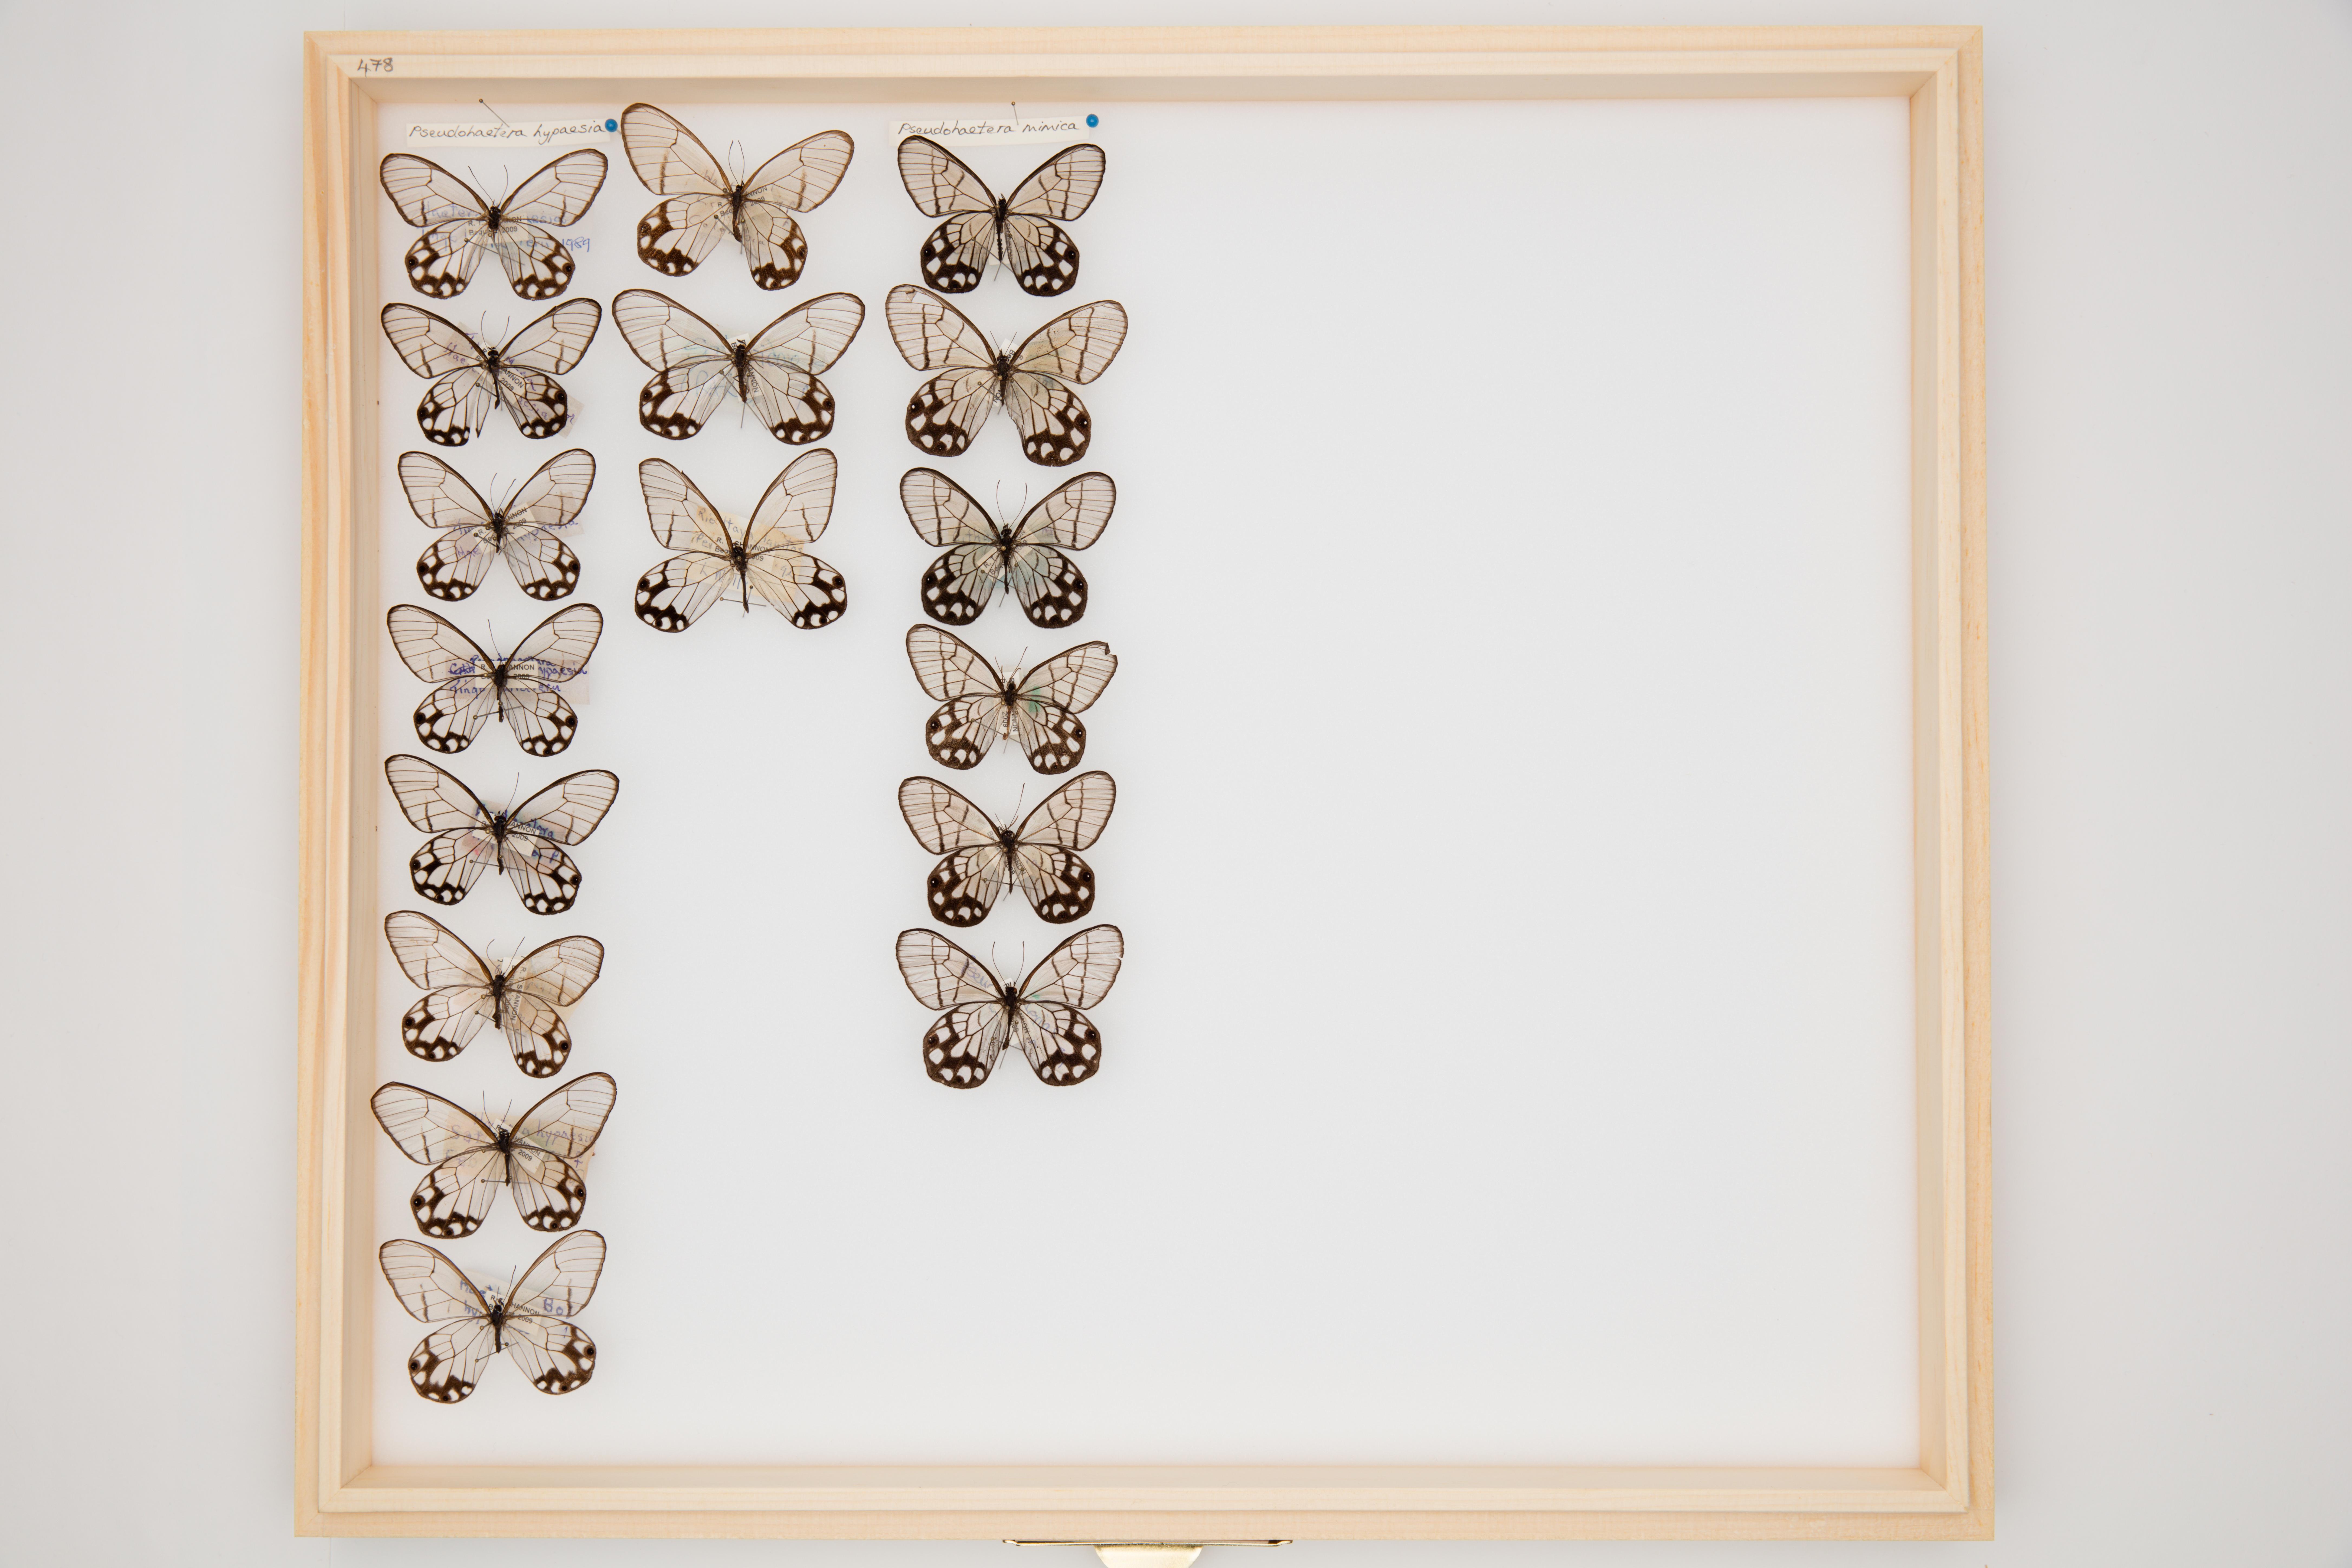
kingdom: Animalia
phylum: Arthropoda
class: Insecta
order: Lepidoptera
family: Nymphalidae
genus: Pseudohaetera
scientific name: Pseudohaetera hypaesia
